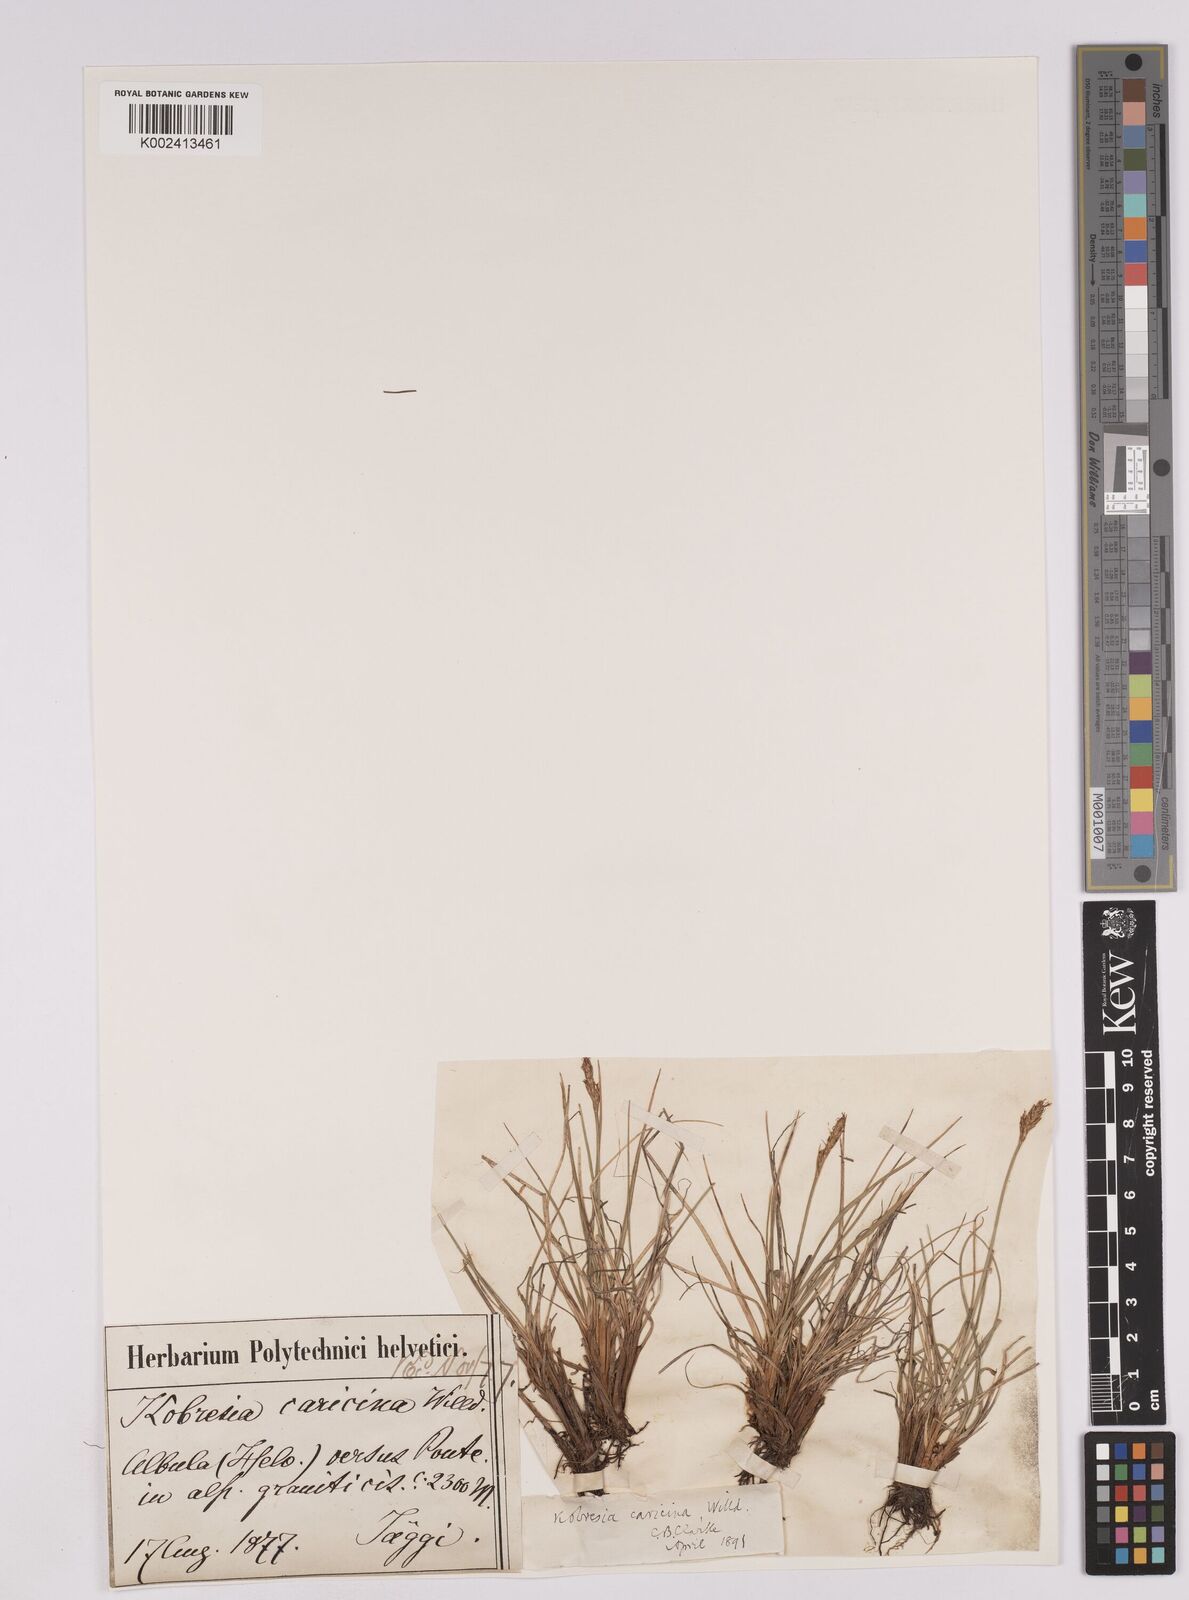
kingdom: Plantae
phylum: Tracheophyta
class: Liliopsida
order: Poales
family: Cyperaceae
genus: Carex
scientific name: Carex simpliciuscula
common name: Simple bog sedge
